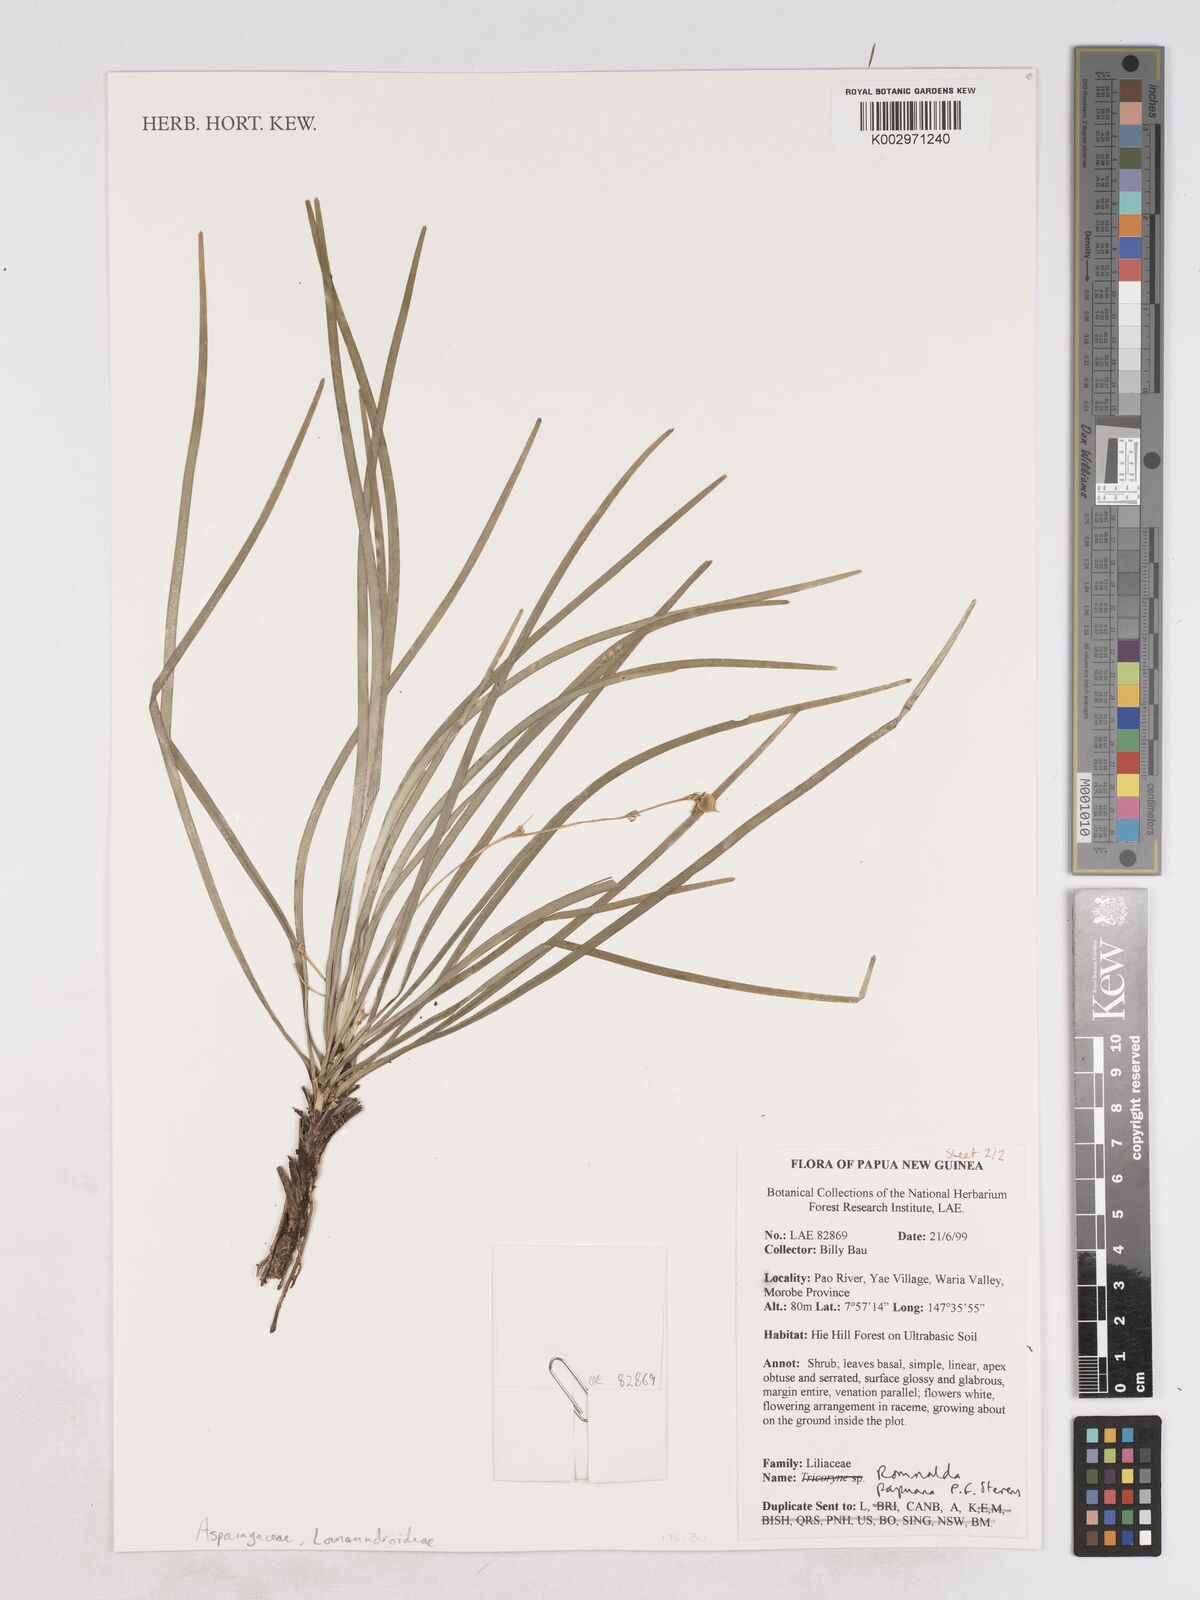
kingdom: Plantae
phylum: Tracheophyta
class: Liliopsida
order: Asparagales
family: Asparagaceae
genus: Romnalda
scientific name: Romnalda papuana
